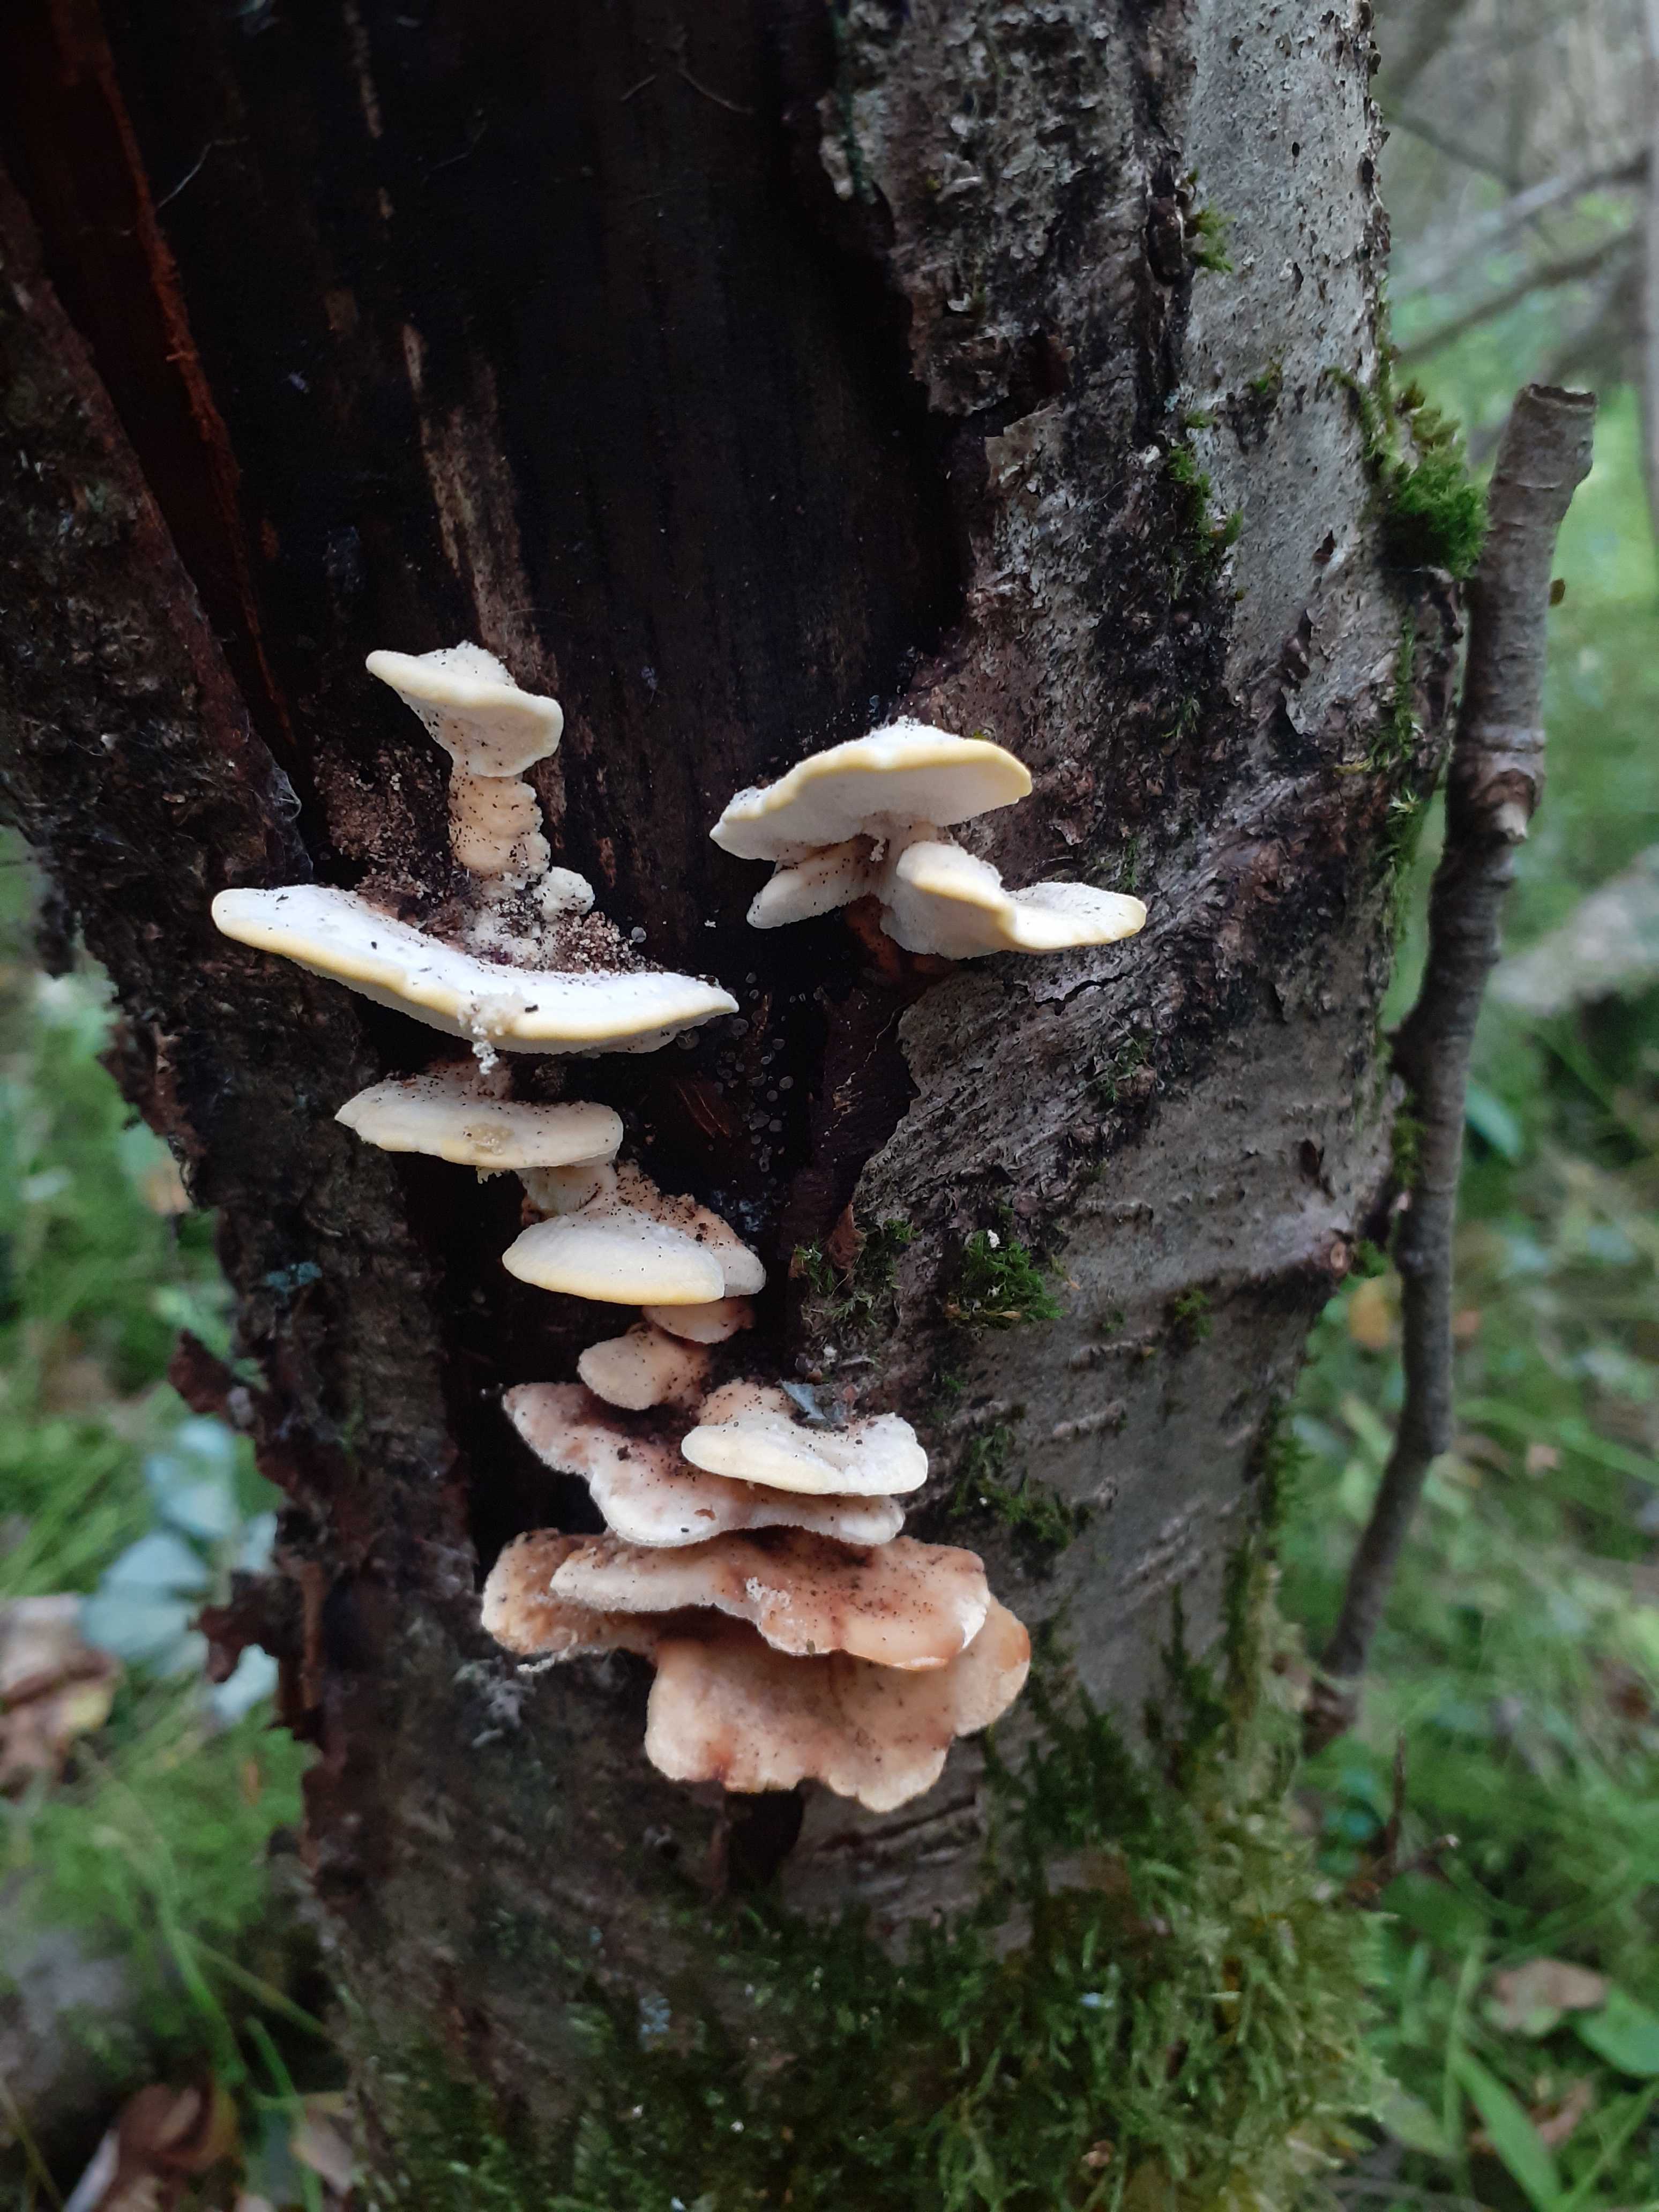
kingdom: Fungi
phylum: Basidiomycota
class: Agaricomycetes
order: Polyporales
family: Steccherinaceae
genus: Antrodiella
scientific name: Antrodiella serpula
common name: gulrandet elastikporesvamp
